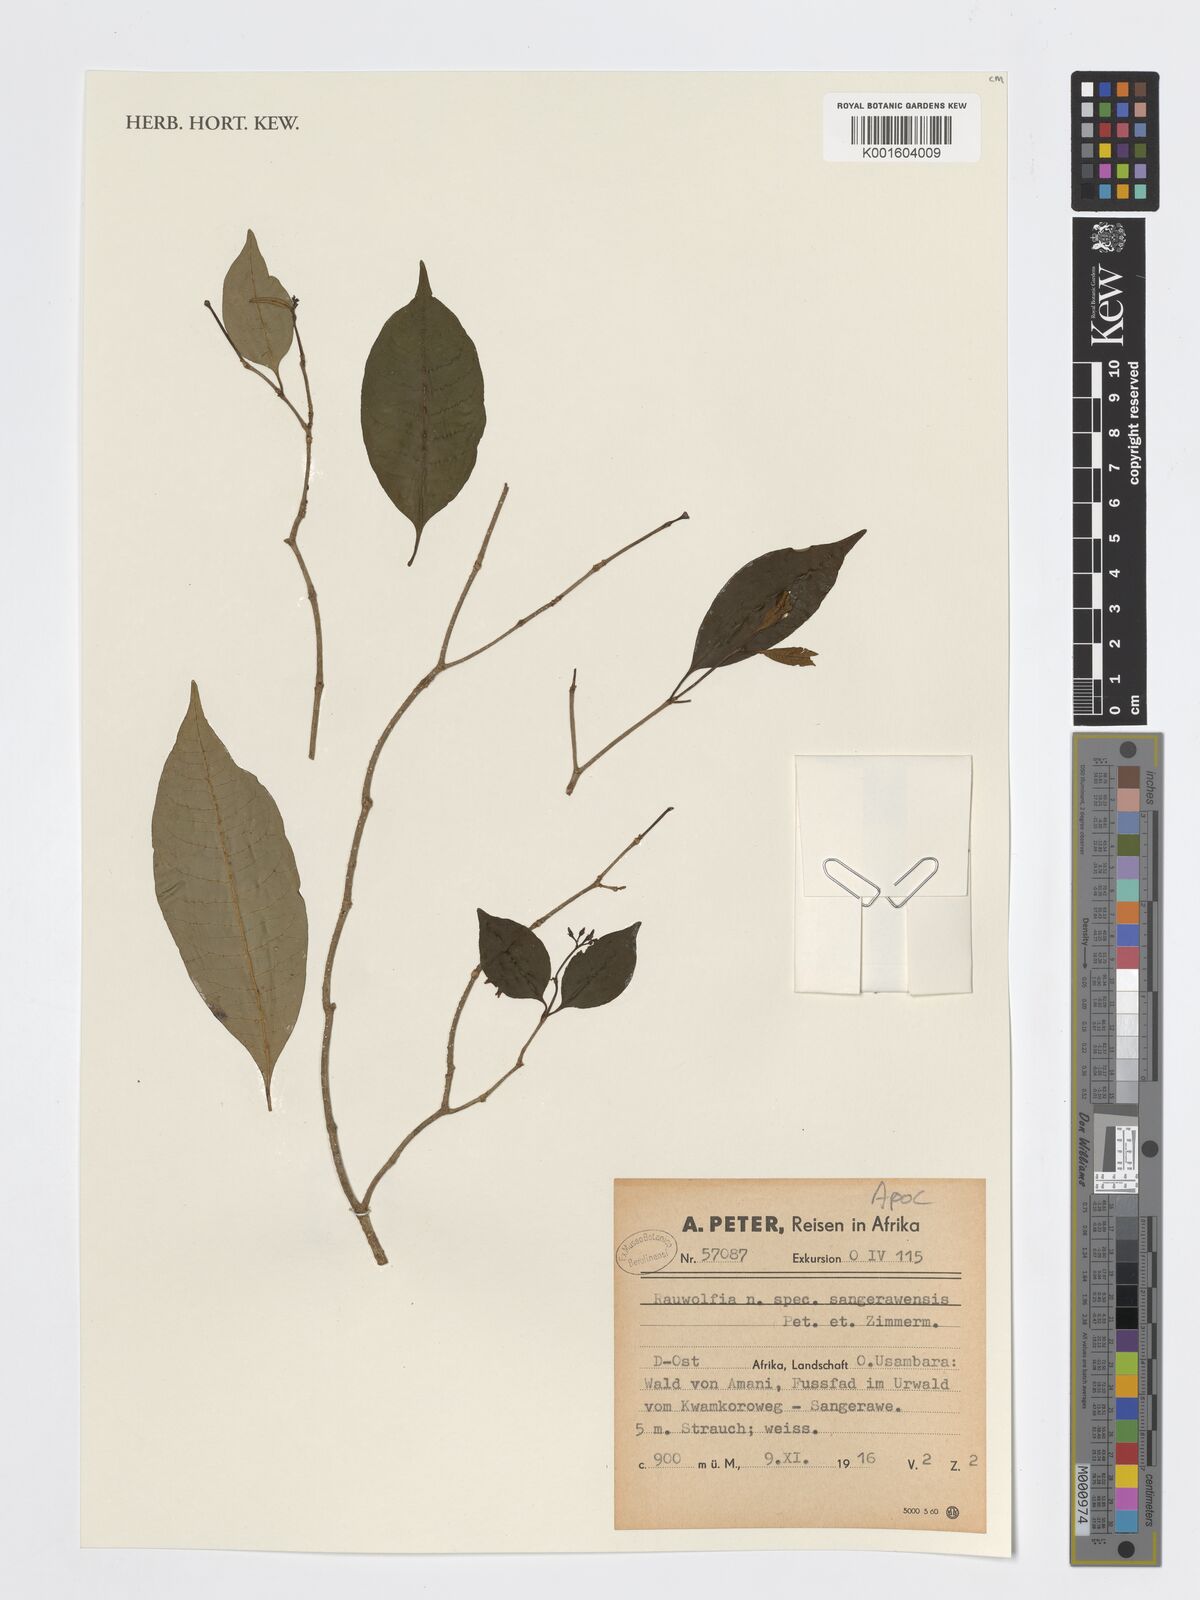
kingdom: Plantae
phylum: Tracheophyta
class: Magnoliopsida
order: Gentianales
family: Apocynaceae
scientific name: Apocynaceae
